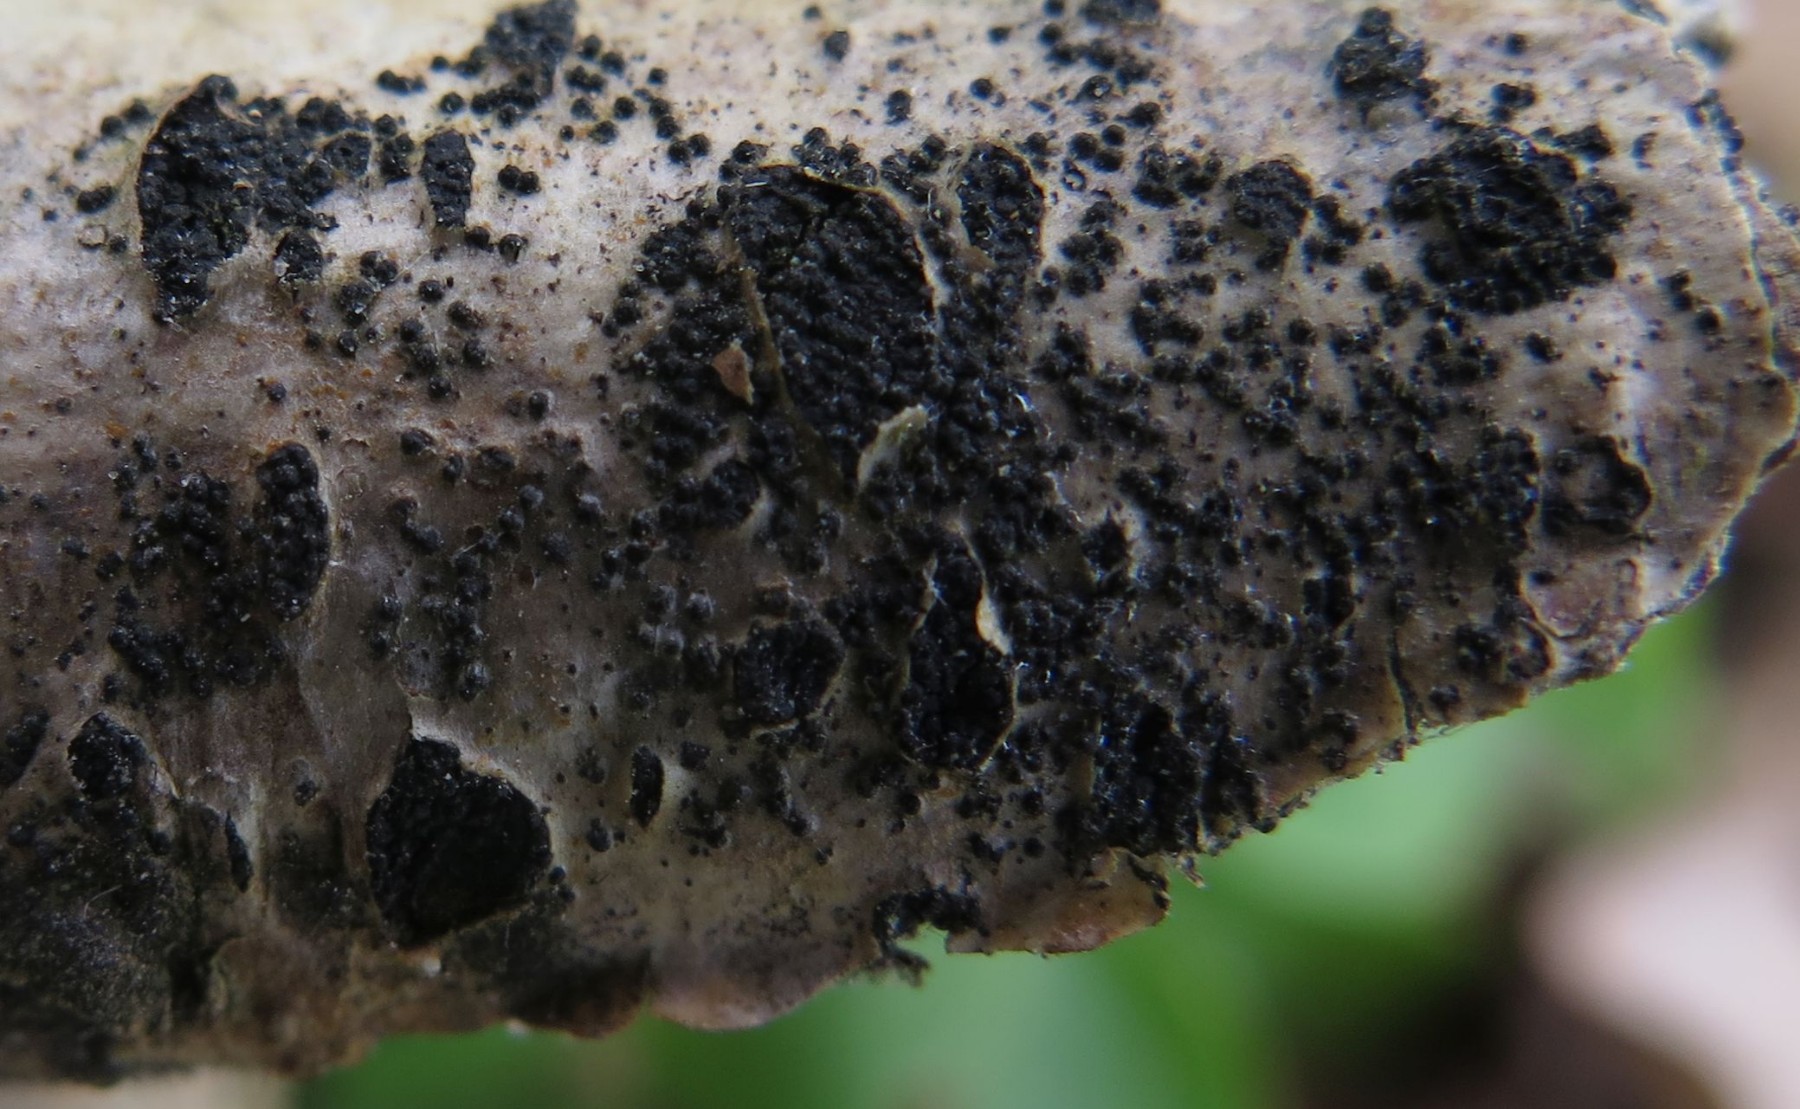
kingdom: Fungi
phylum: Ascomycota
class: Dothideomycetes
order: Pleosporales
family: Melanommataceae
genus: Melanomma
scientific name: Melanomma pulvis-pyrius
